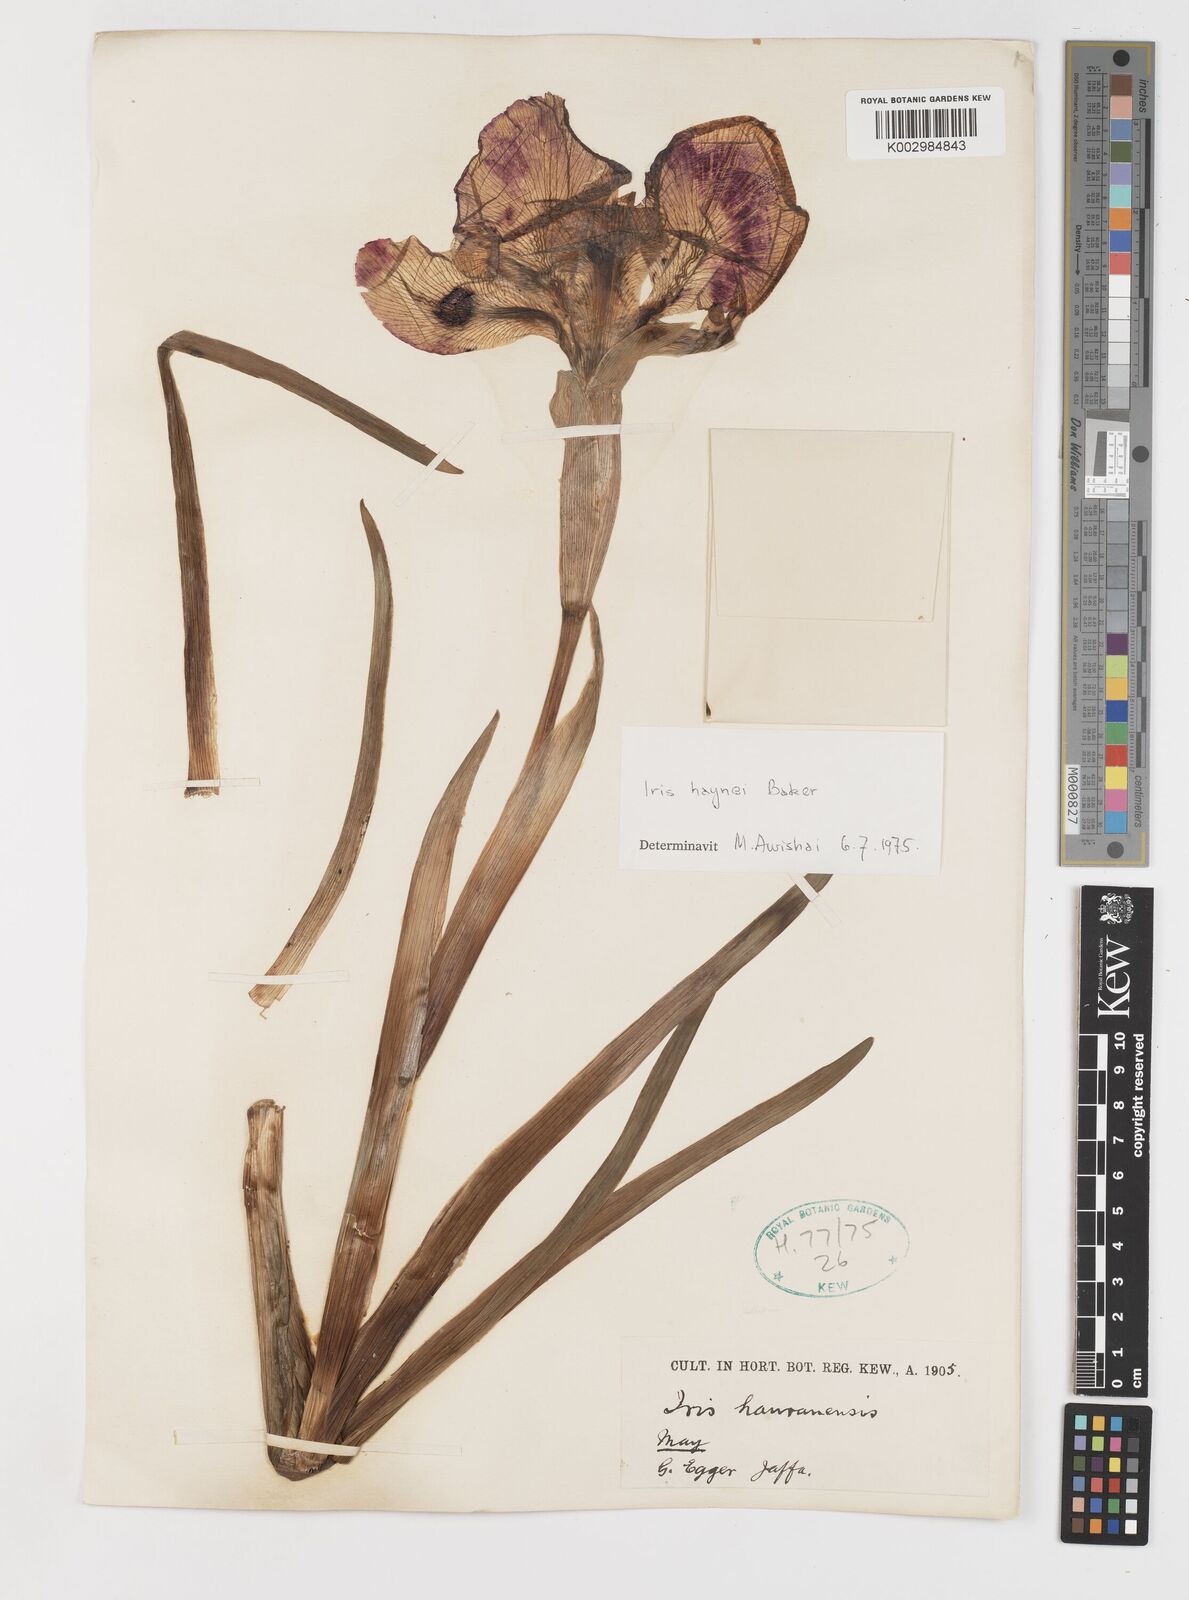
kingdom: Plantae
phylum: Tracheophyta
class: Liliopsida
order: Asparagales
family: Iridaceae
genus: Iris
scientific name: Iris atrofusca
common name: Asshafa iris
